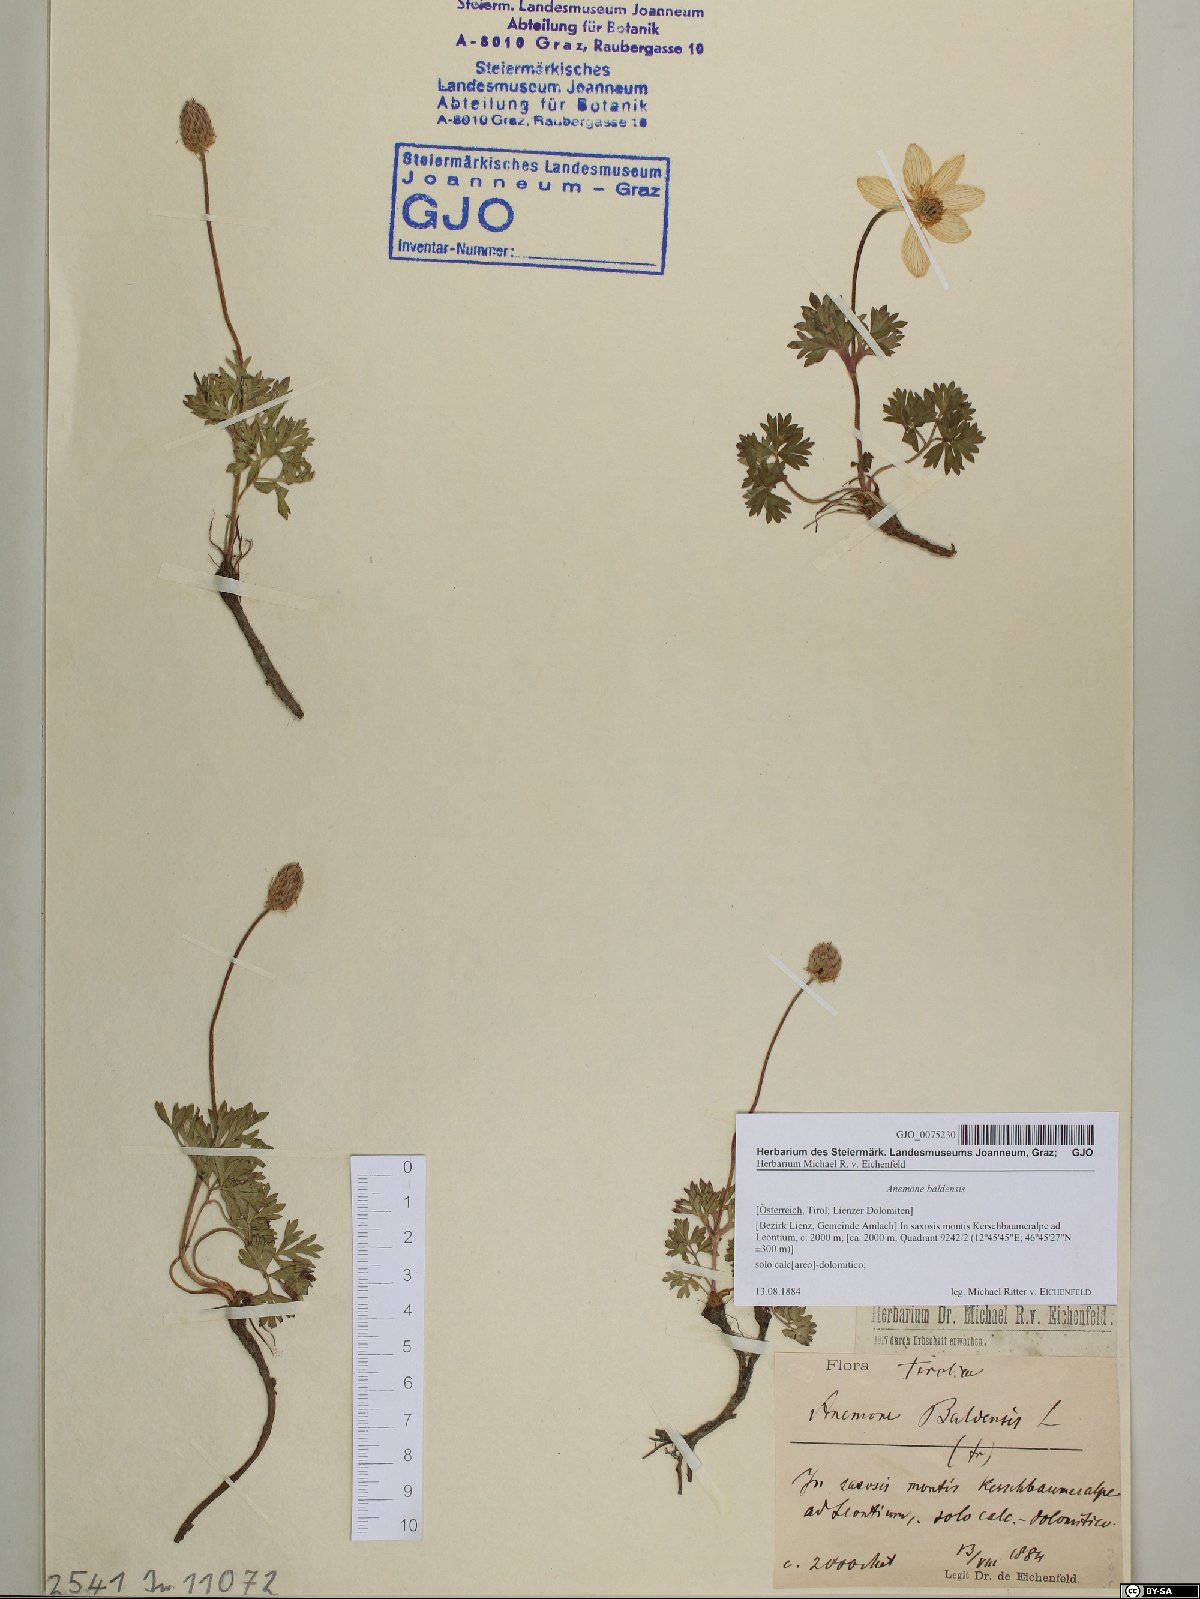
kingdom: Plantae
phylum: Tracheophyta
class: Magnoliopsida
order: Ranunculales
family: Ranunculaceae
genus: Anemone
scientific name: Anemone baldensis
